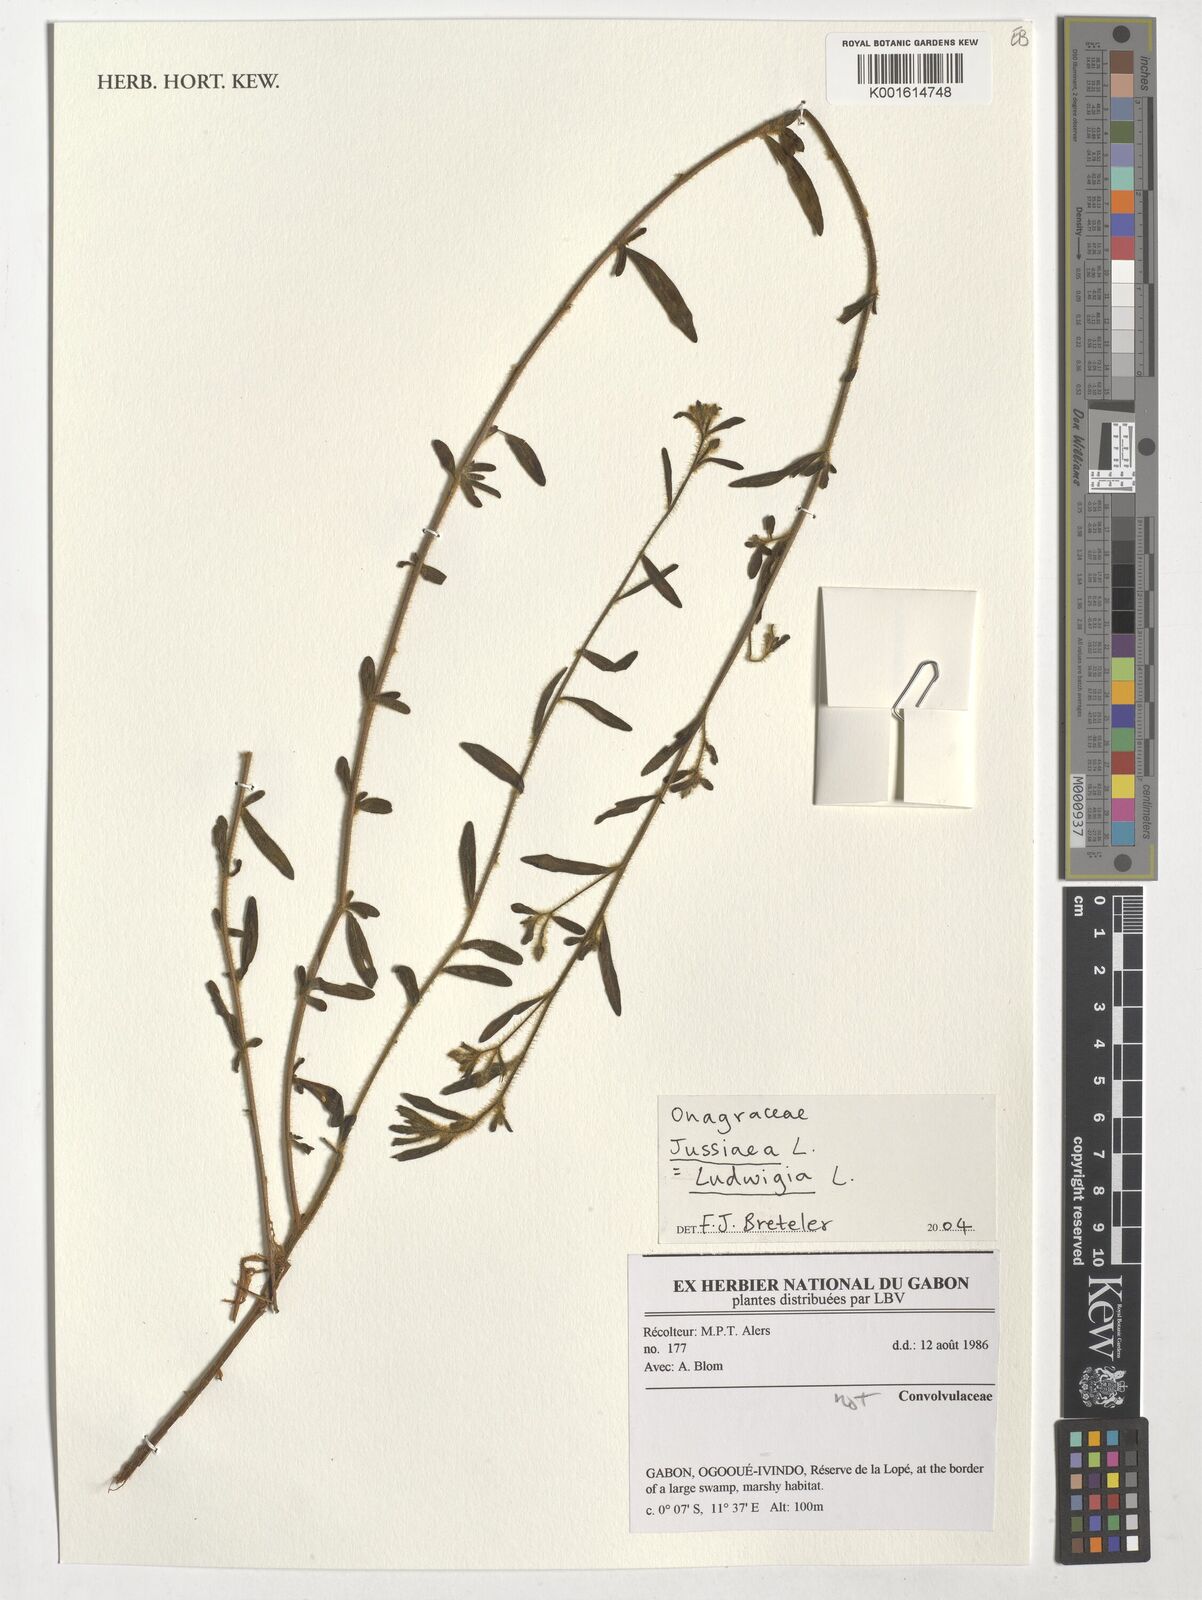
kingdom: Plantae
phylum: Tracheophyta
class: Magnoliopsida
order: Myrtales
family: Onagraceae
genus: Ludwigia
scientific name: Ludwigia
